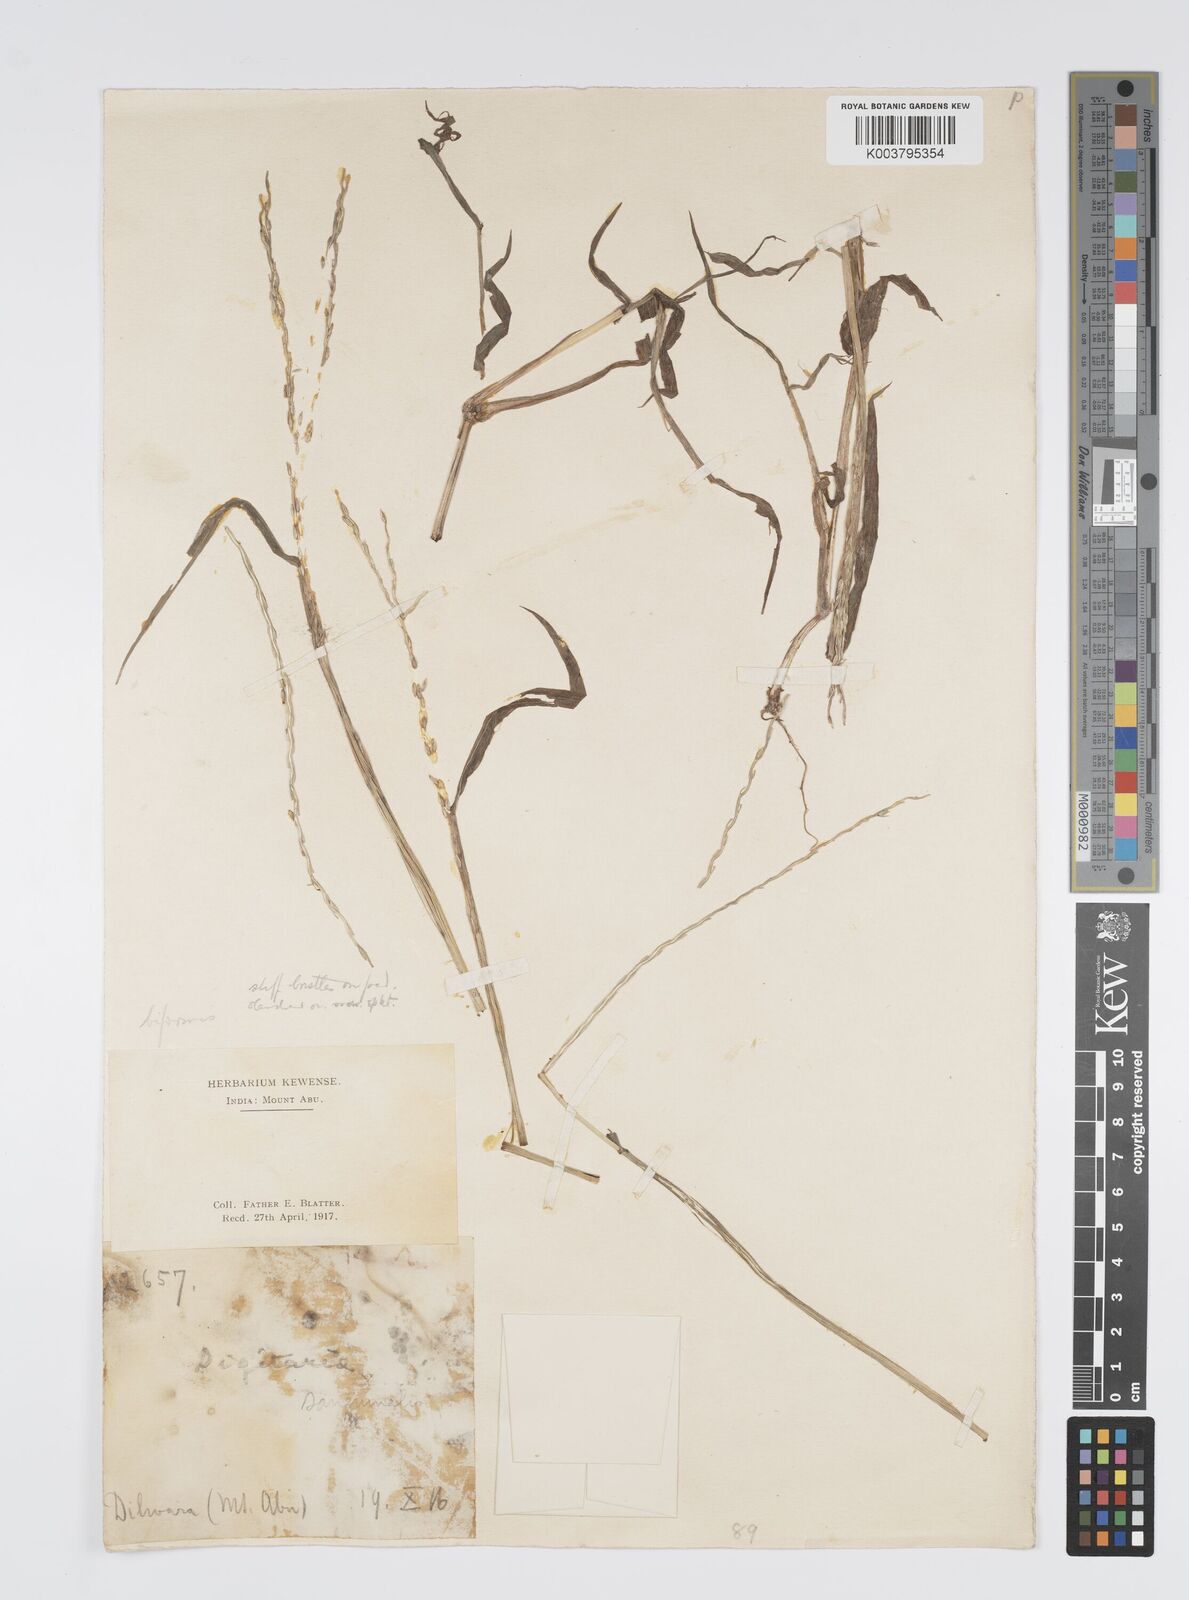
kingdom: Plantae
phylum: Tracheophyta
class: Liliopsida
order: Poales
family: Poaceae
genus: Digitaria
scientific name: Digitaria ciliaris
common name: Tropical finger-grass
